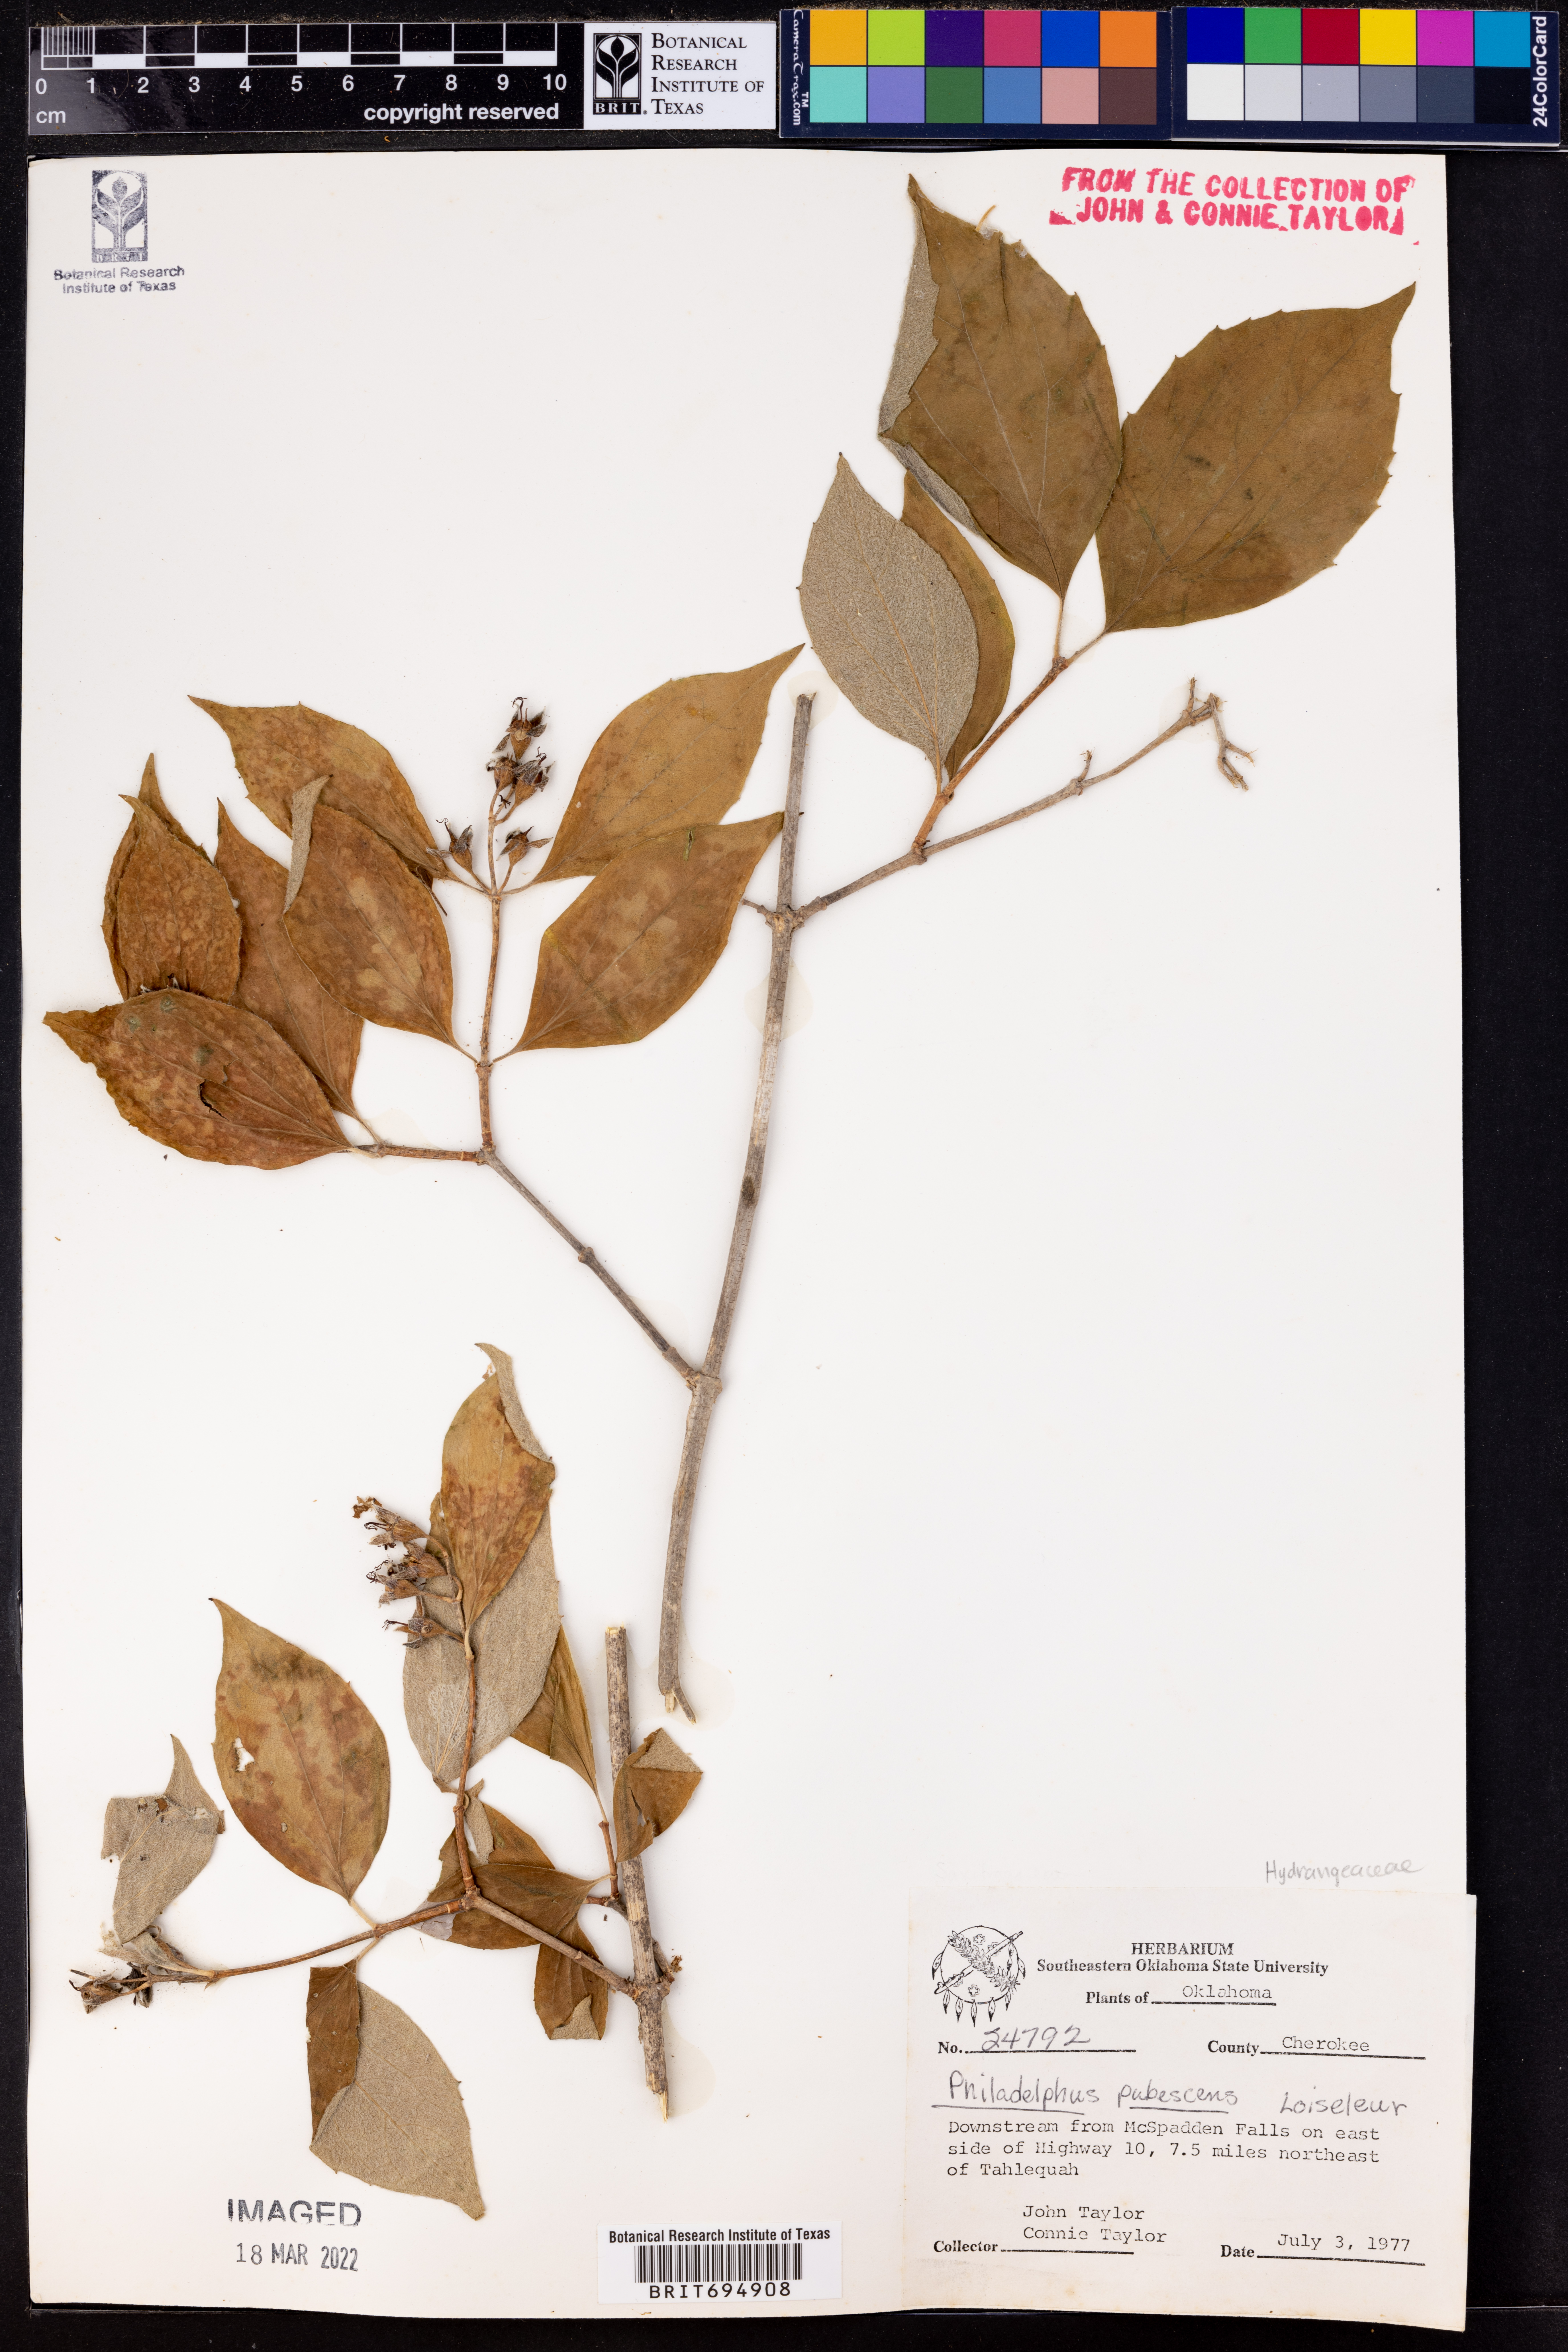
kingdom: Plantae
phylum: Tracheophyta
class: Magnoliopsida
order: Cornales
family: Hydrangeaceae
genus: Philadelphus
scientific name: Philadelphus pubescens
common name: Broadleaf mock orange
